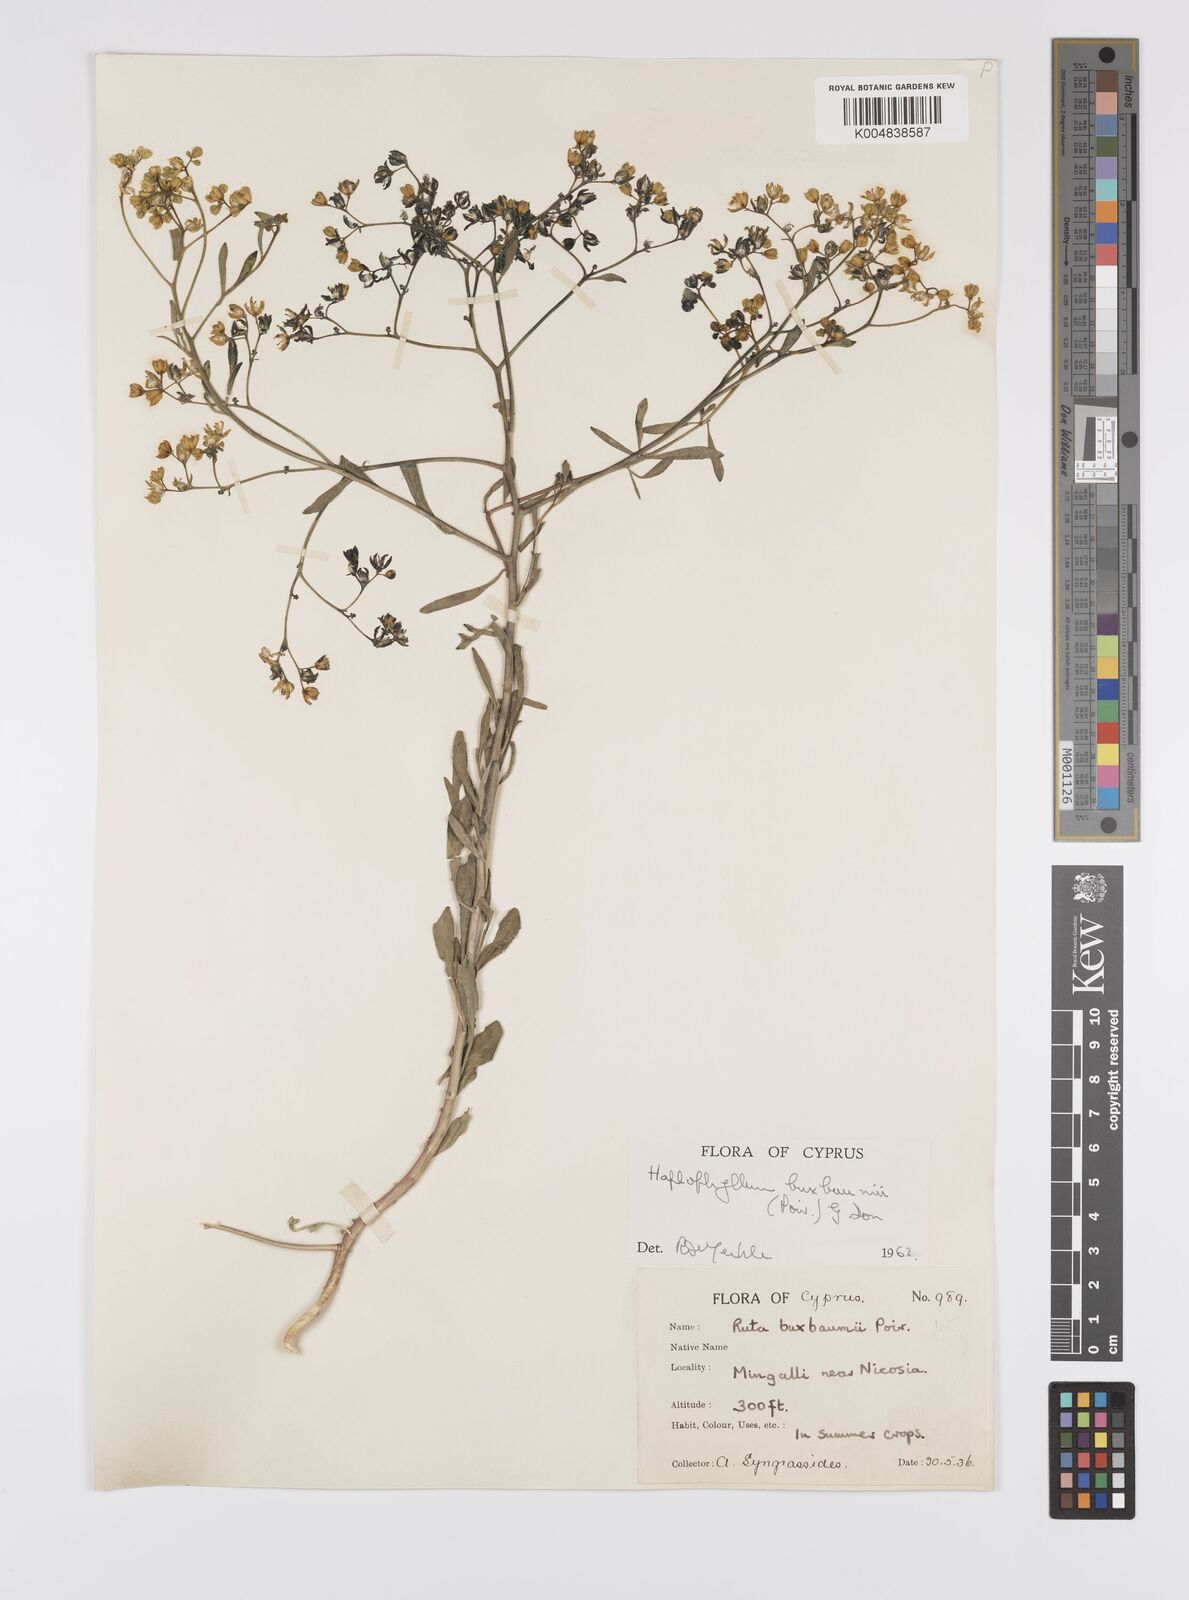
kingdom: Plantae
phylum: Tracheophyta
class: Magnoliopsida
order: Sapindales
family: Rutaceae
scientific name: Rutaceae
